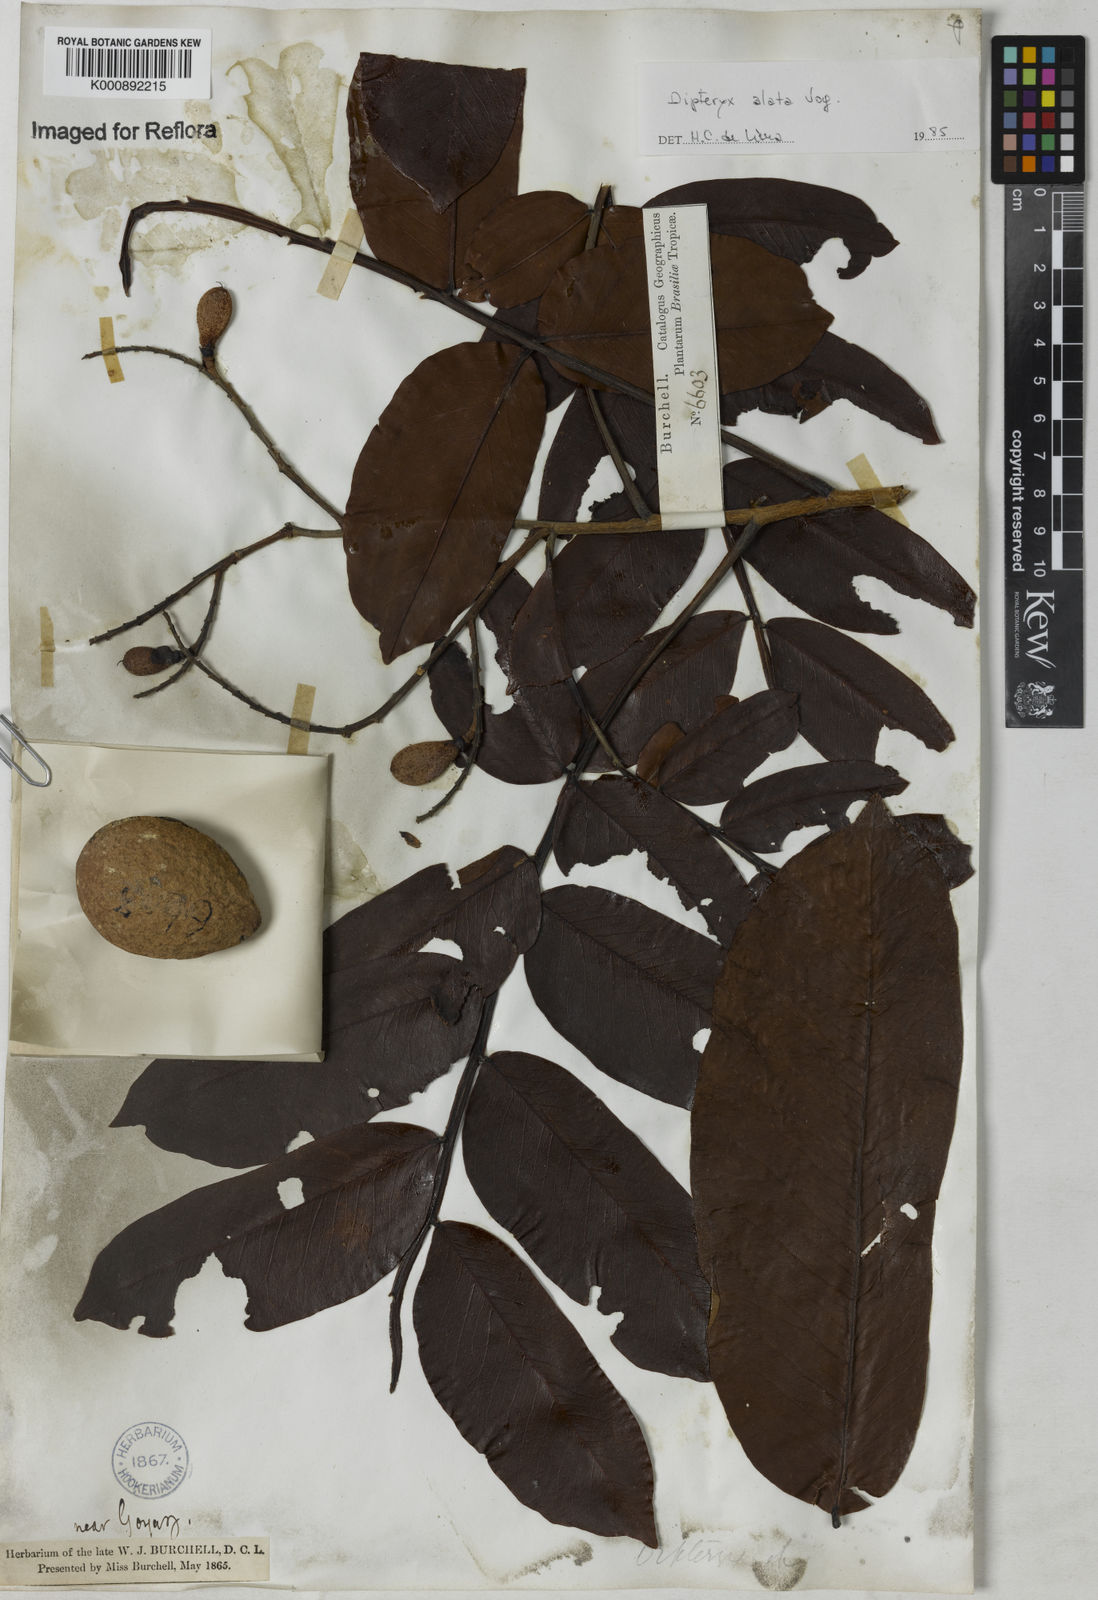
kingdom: Plantae
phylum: Tracheophyta
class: Magnoliopsida
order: Fabales
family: Fabaceae
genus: Dipteryx
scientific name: Dipteryx alata
